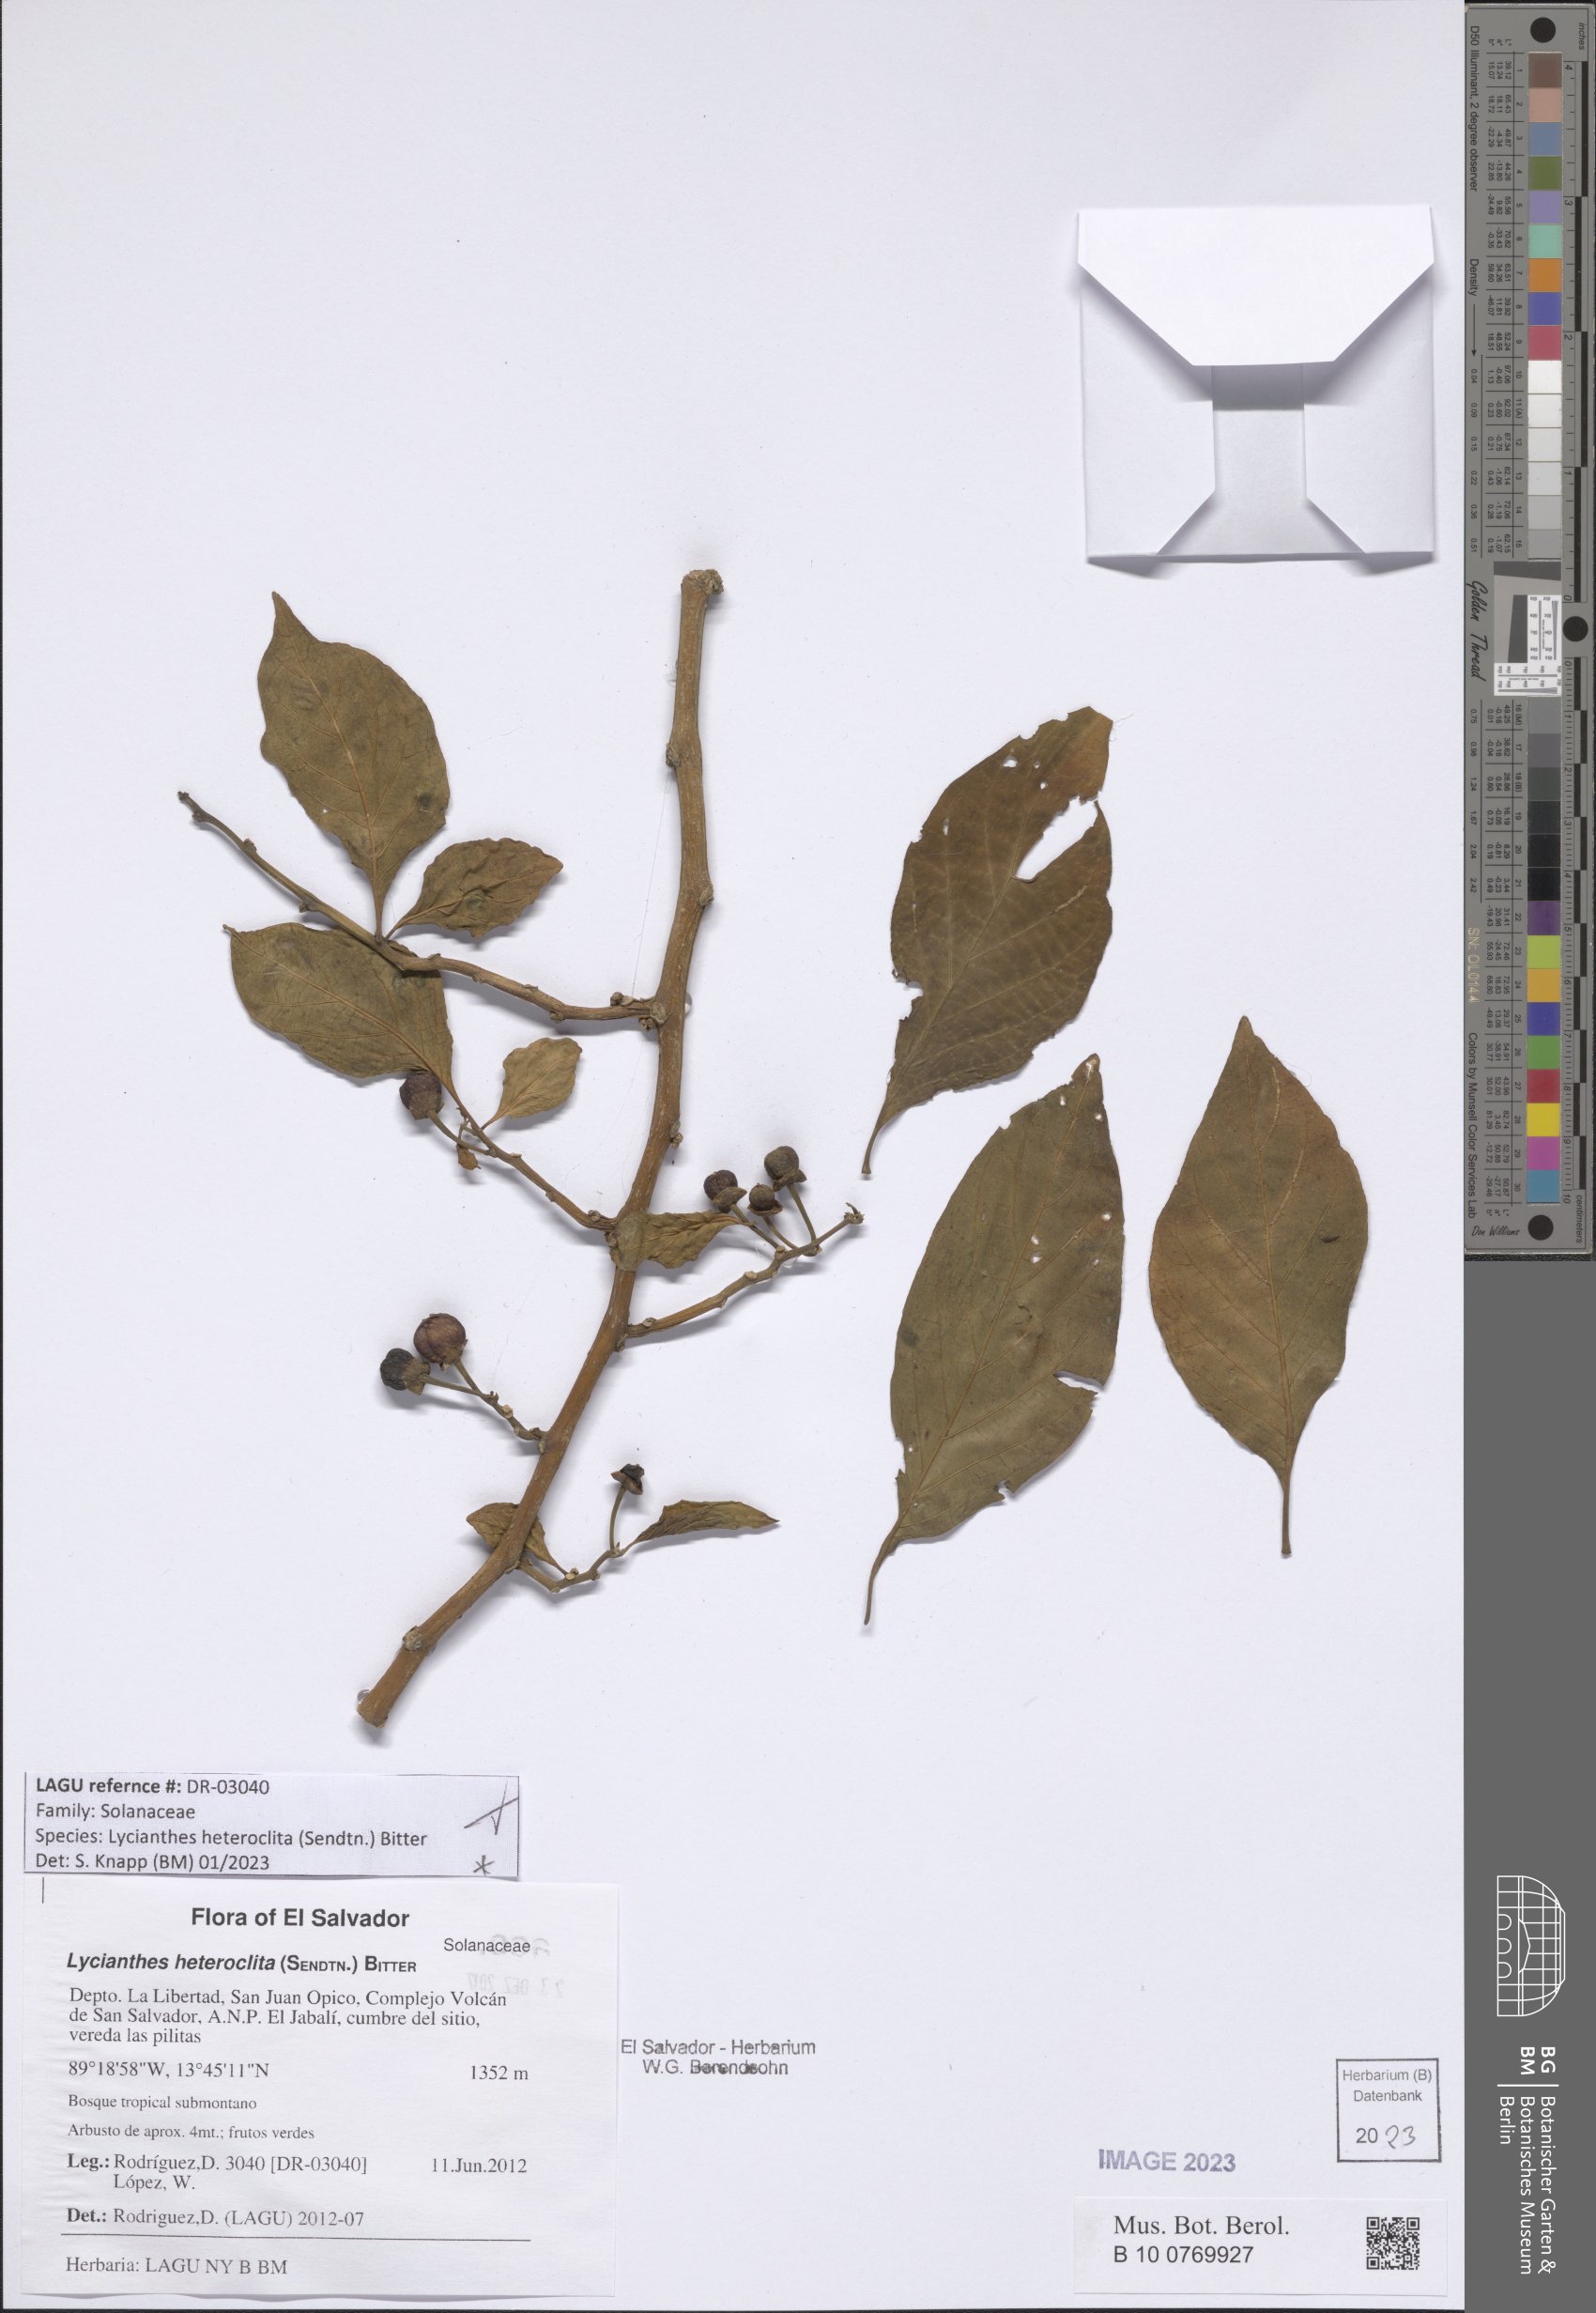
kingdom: Plantae
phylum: Tracheophyta
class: Magnoliopsida
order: Solanales
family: Solanaceae
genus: Lycianthes
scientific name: Lycianthes heteroclita
